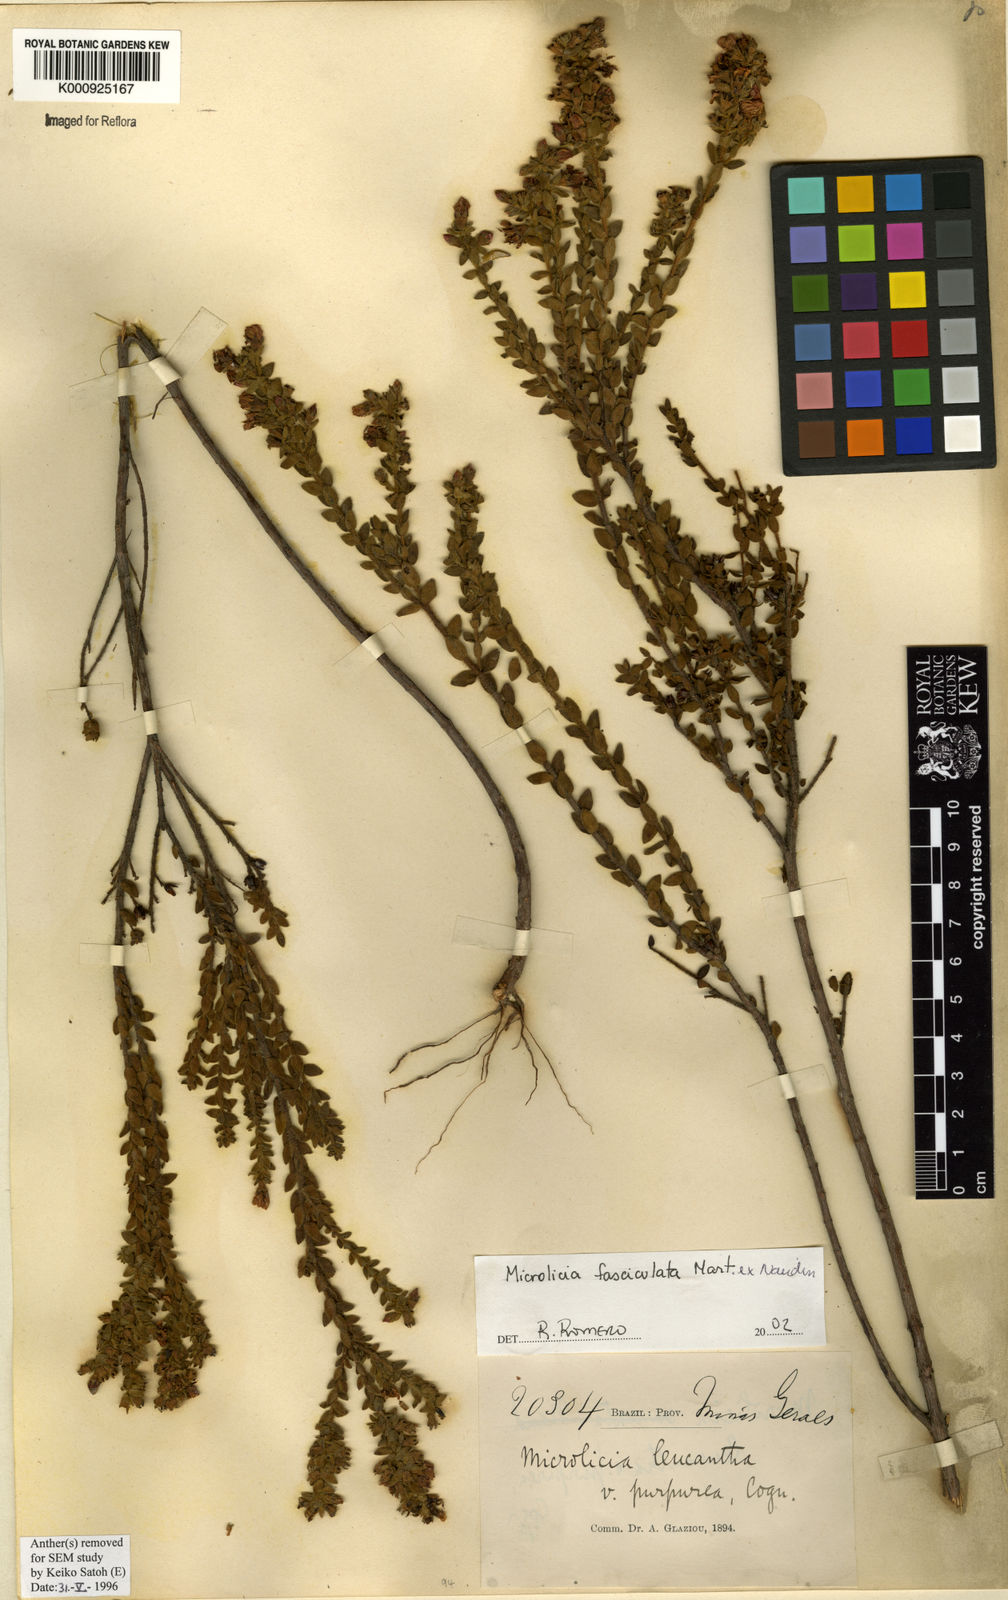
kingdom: Plantae
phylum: Tracheophyta
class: Magnoliopsida
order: Myrtales
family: Melastomataceae
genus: Microlicia
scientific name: Microlicia fasciculata
